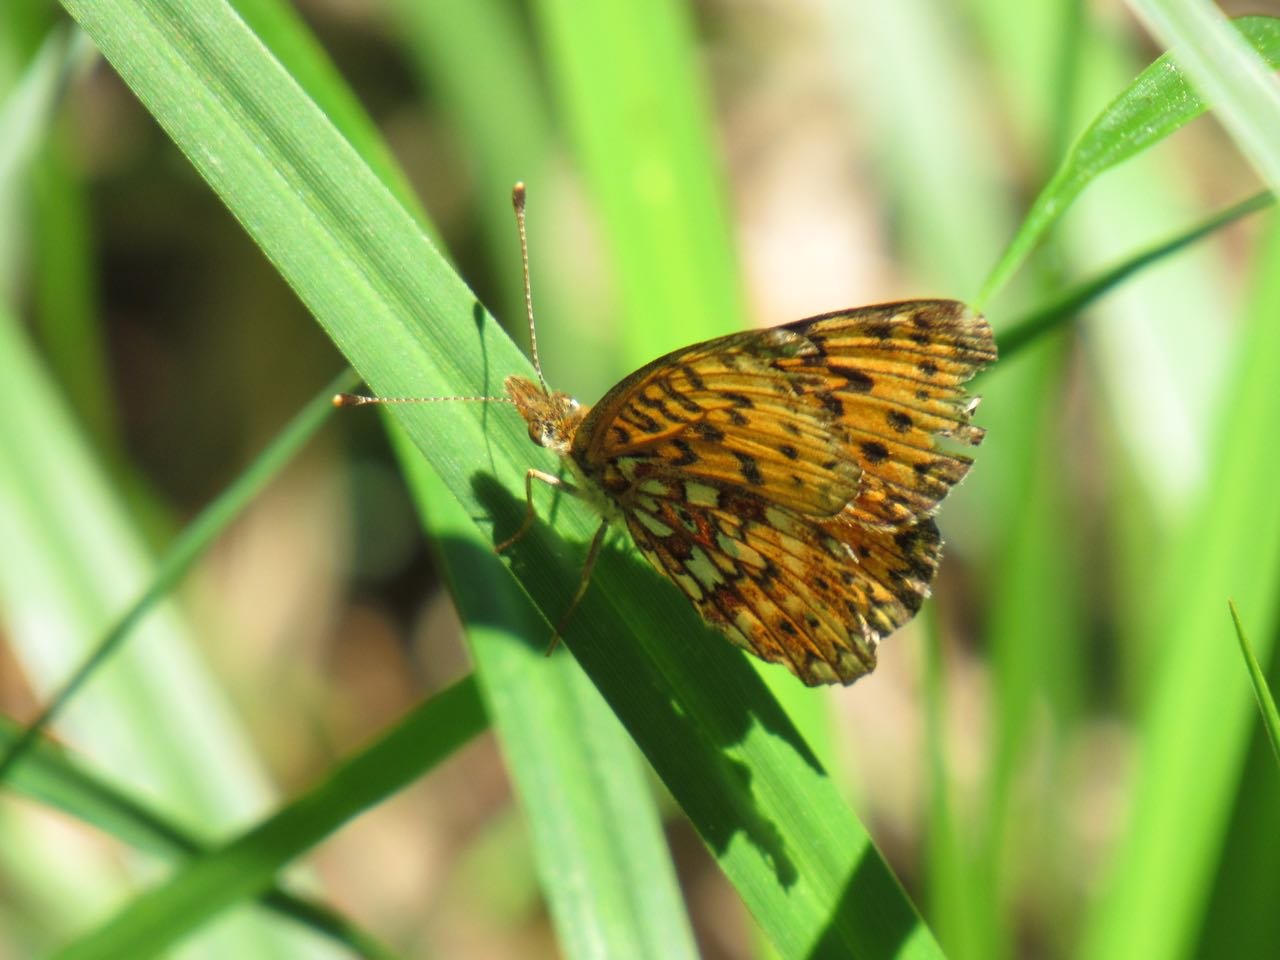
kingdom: Animalia
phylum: Arthropoda
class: Insecta
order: Lepidoptera
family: Nymphalidae
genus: Boloria
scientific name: Boloria selene
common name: Silver-bordered Fritillary
